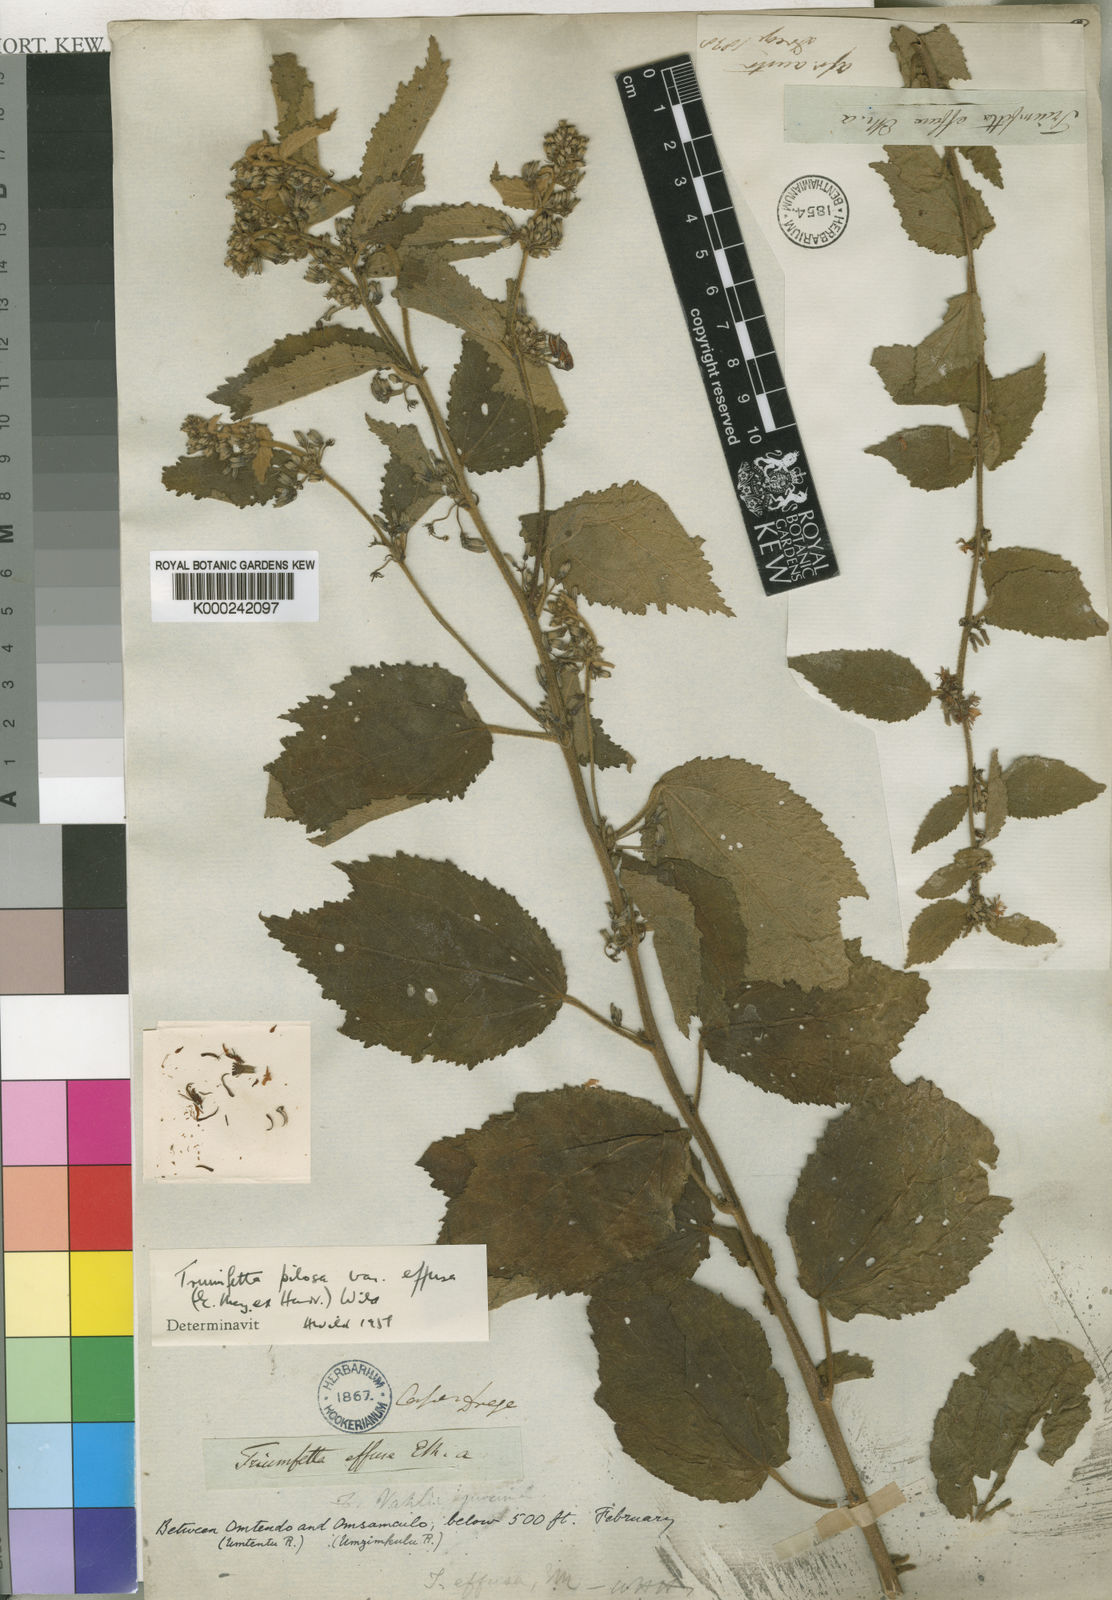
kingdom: Plantae
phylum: Tracheophyta
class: Magnoliopsida
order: Malvales
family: Malvaceae
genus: Triumfetta
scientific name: Triumfetta pilosa
